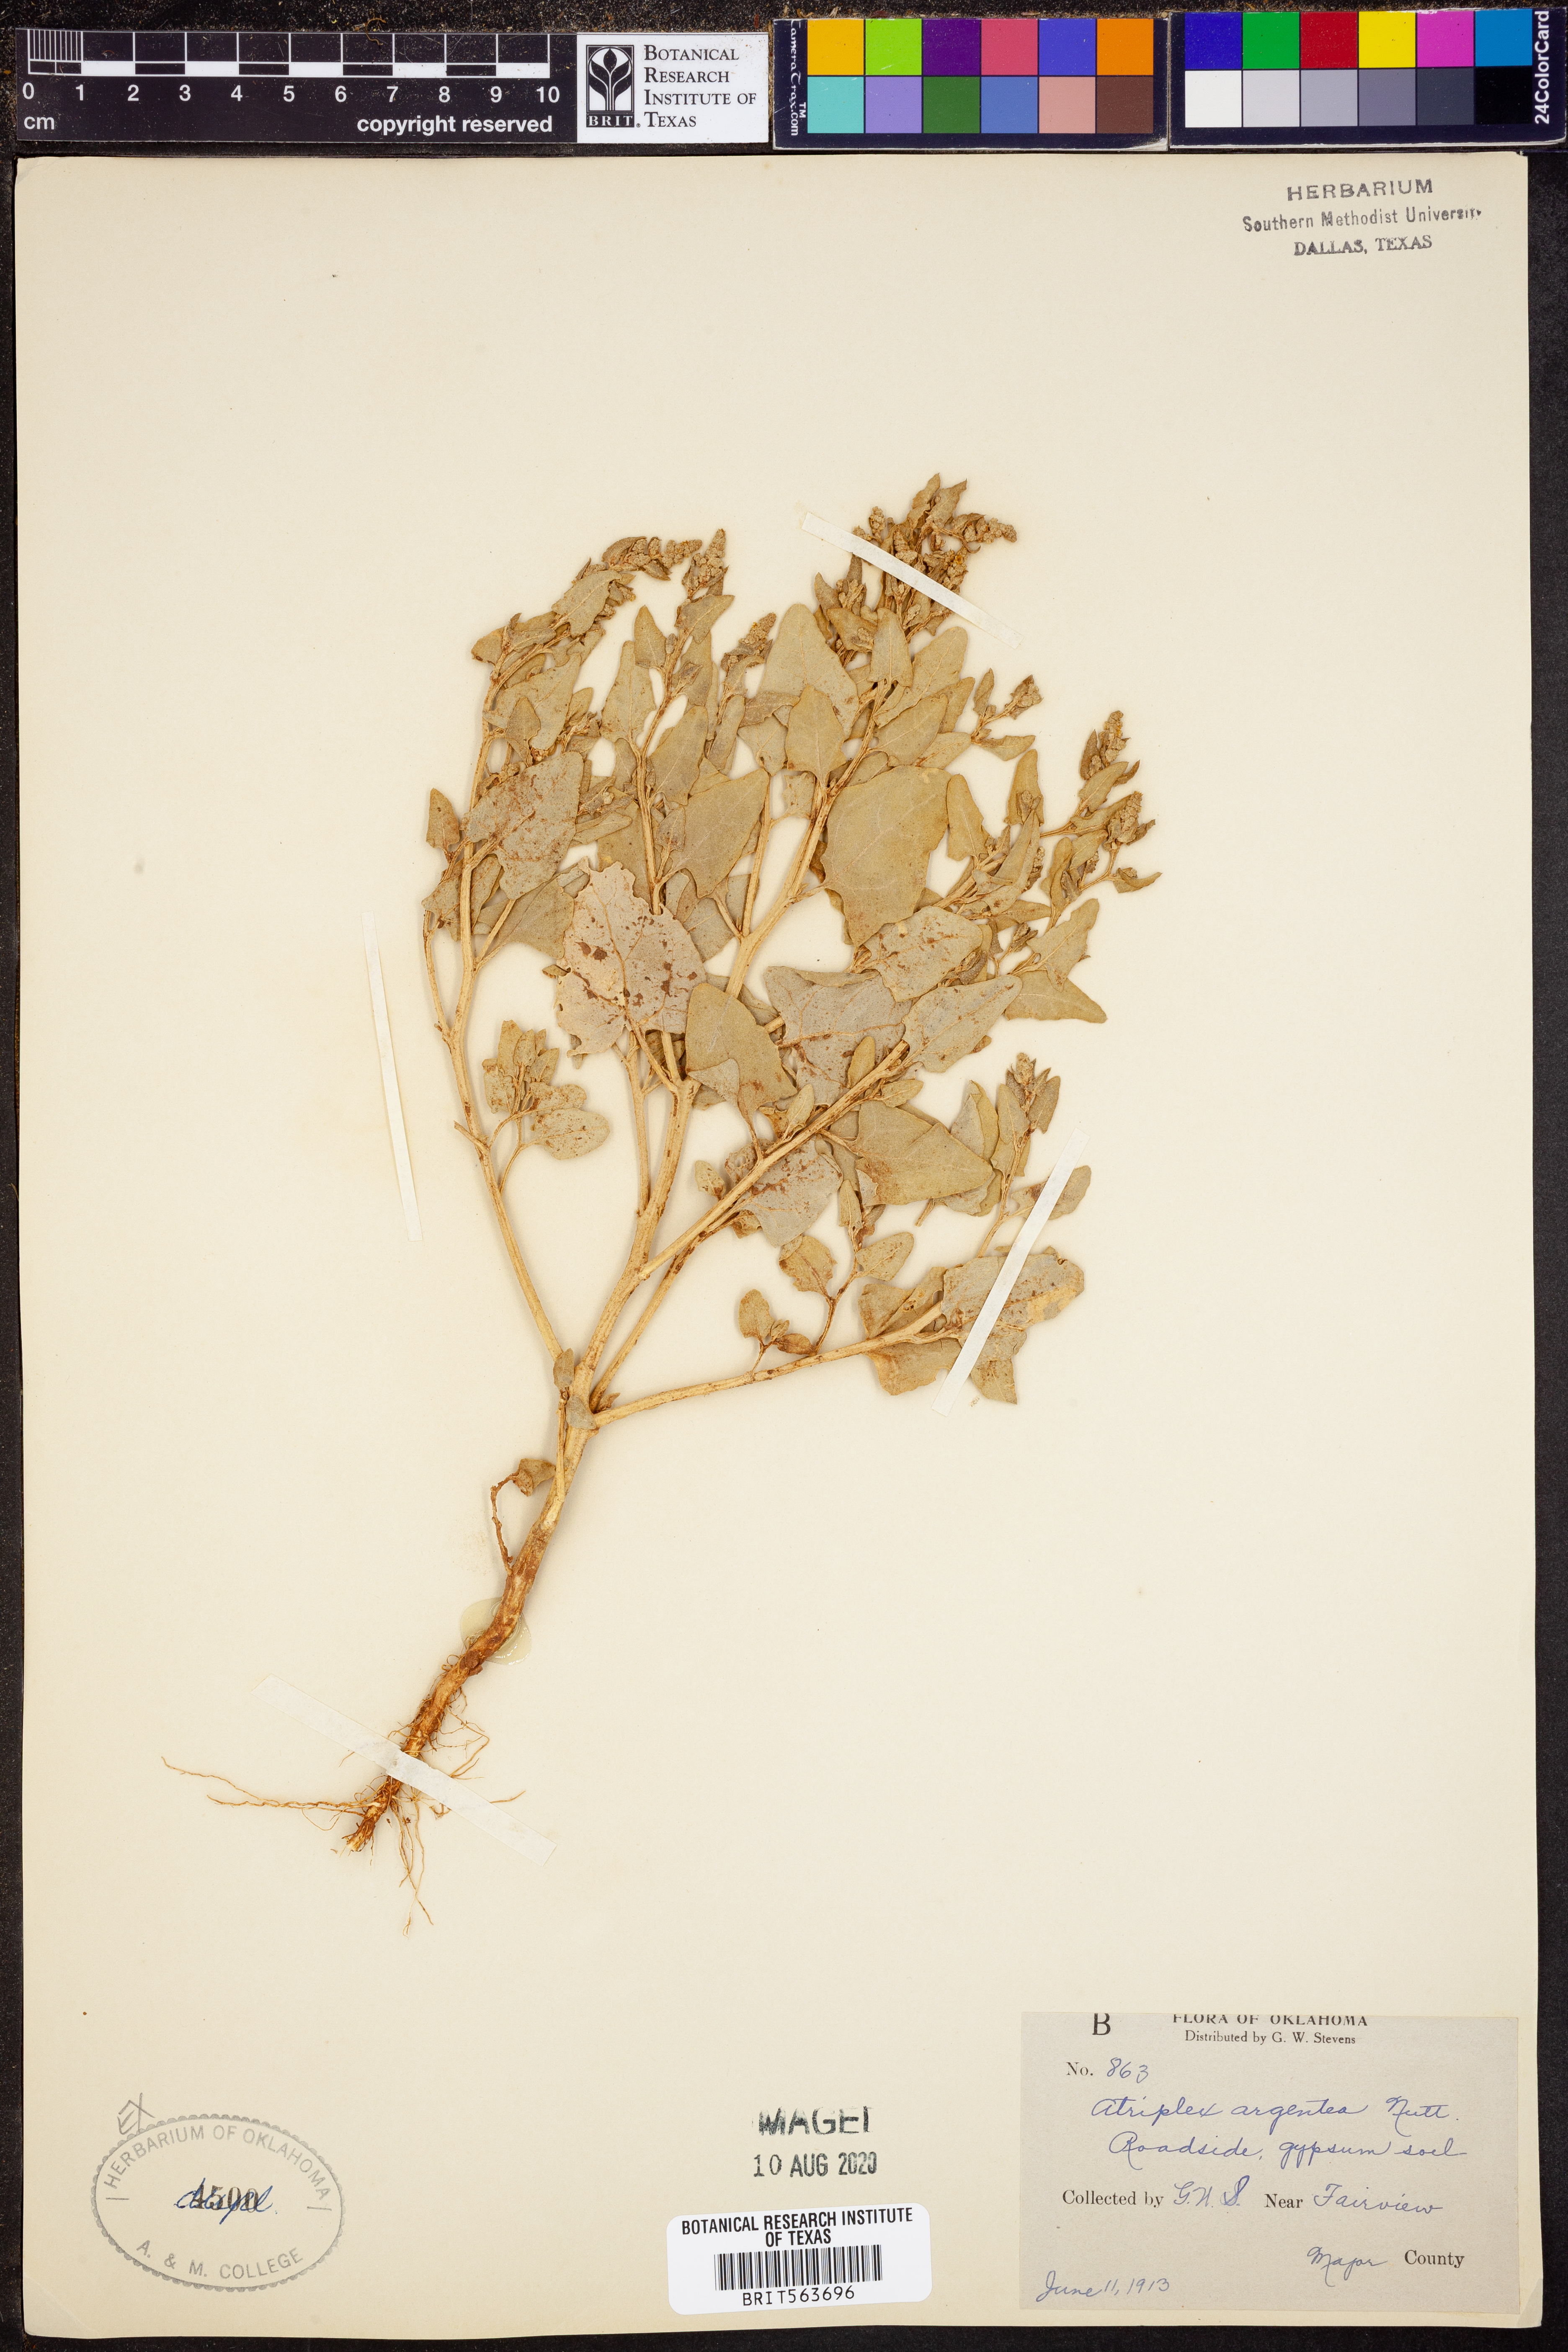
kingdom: Plantae
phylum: Tracheophyta
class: Magnoliopsida
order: Caryophyllales
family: Amaranthaceae
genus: Atriplex
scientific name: Atriplex argentea
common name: Silverscale
